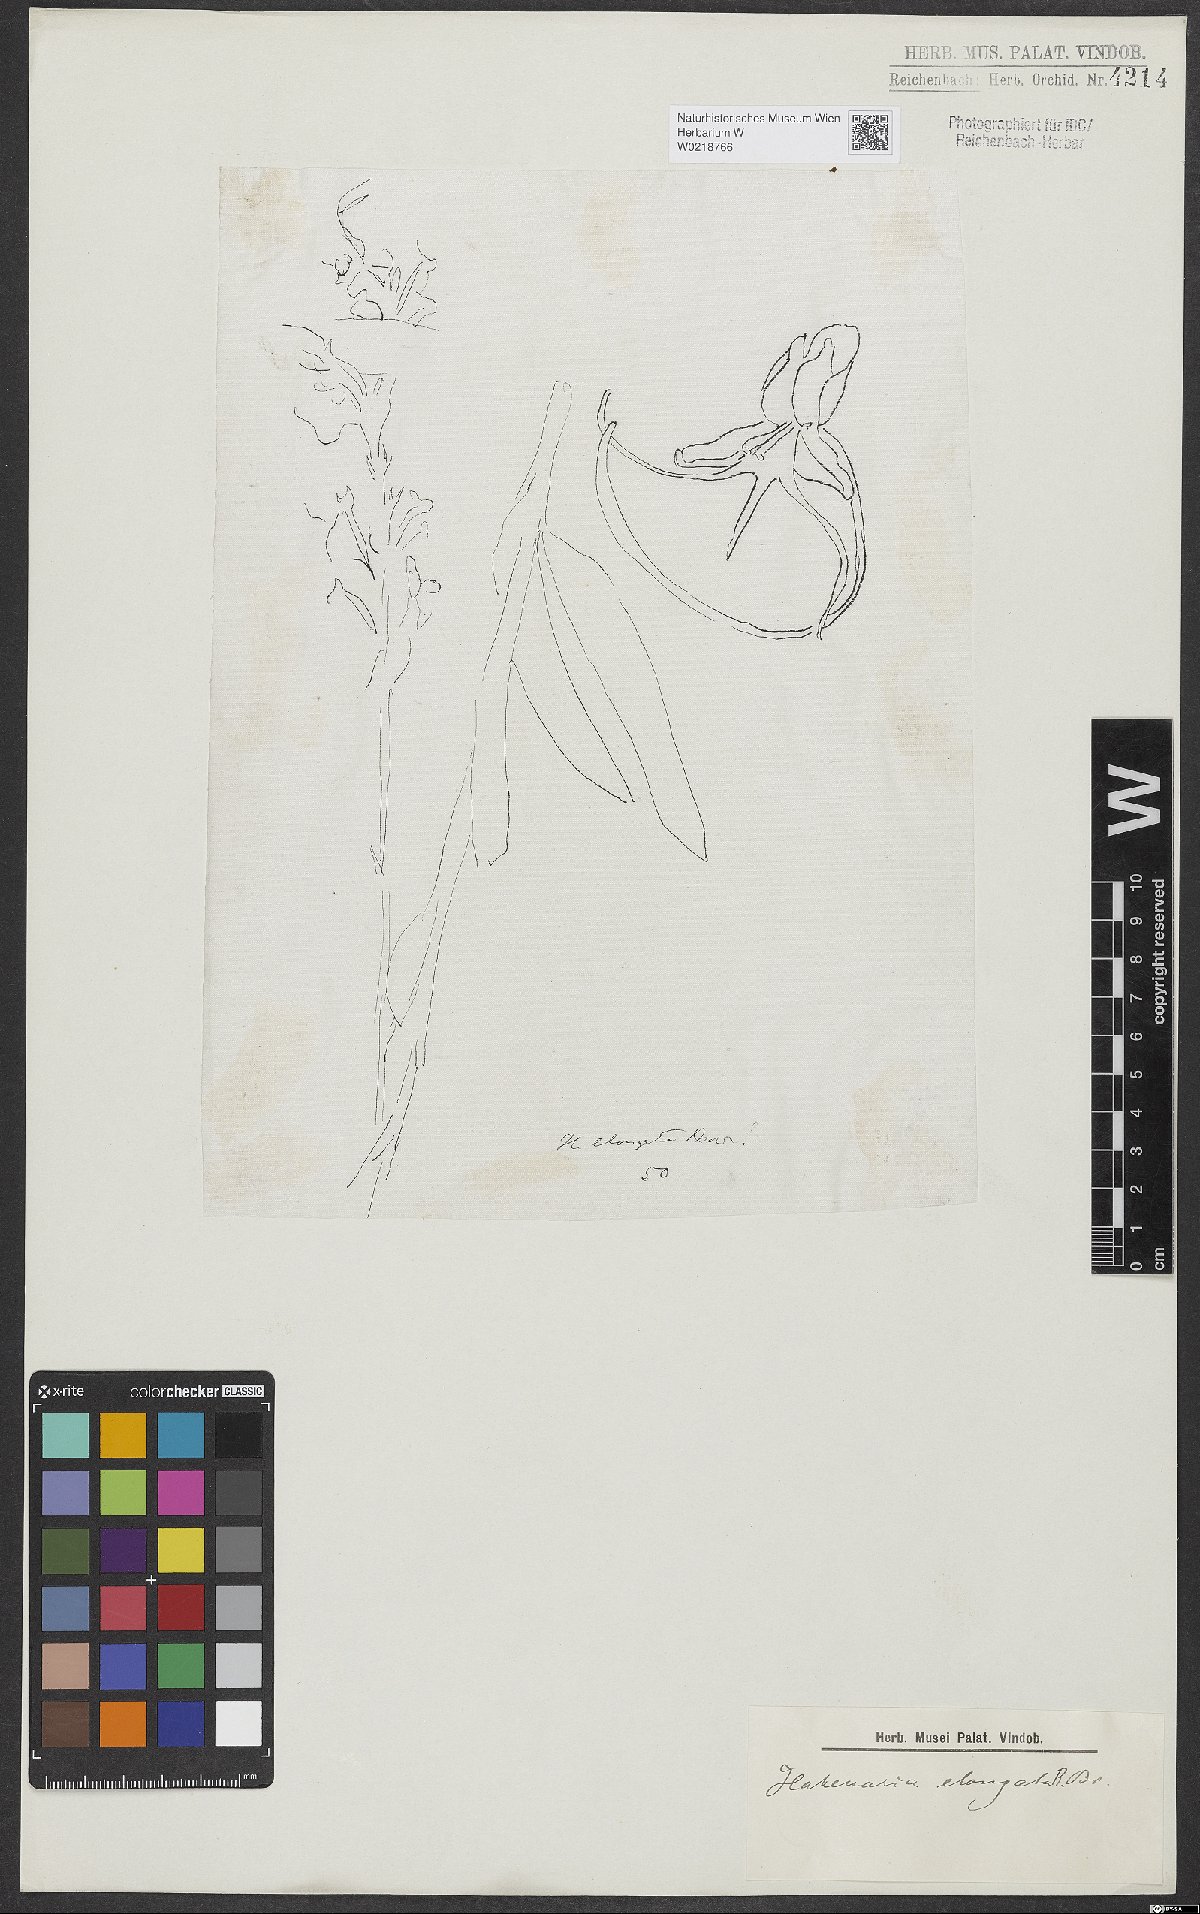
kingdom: Plantae
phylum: Tracheophyta
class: Liliopsida
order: Asparagales
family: Orchidaceae
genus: Habenaria
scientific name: Habenaria elongata
